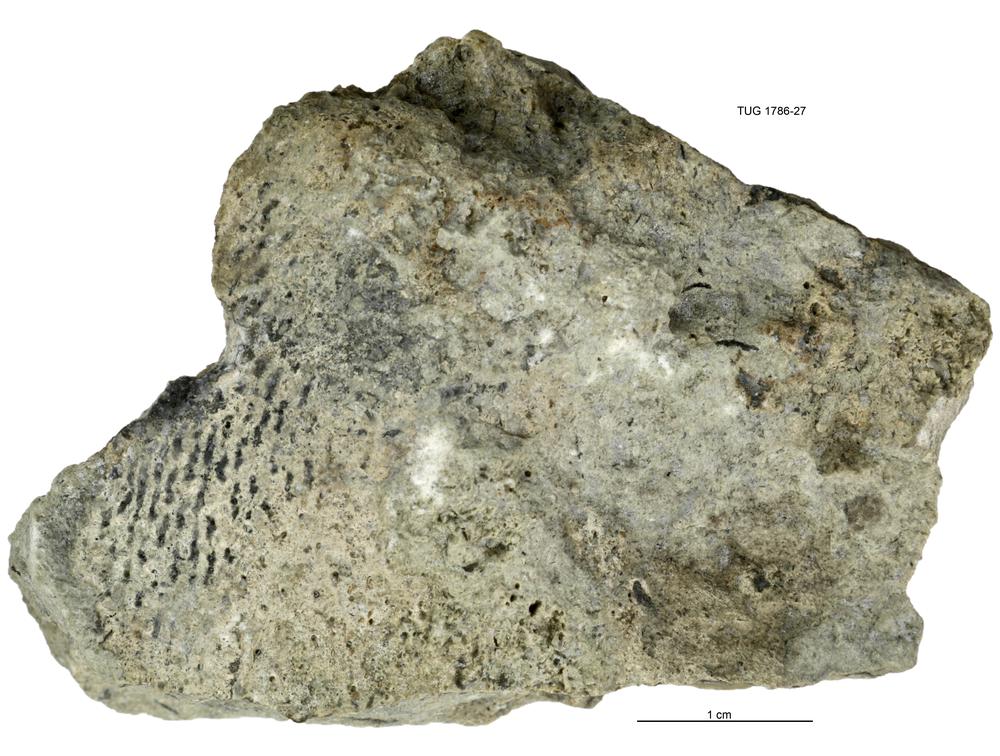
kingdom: Plantae
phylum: Chlorophyta
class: Chlorophyceae
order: Receptaculitales
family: Receptaculitaceae
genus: Receptaculites
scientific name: Receptaculites
